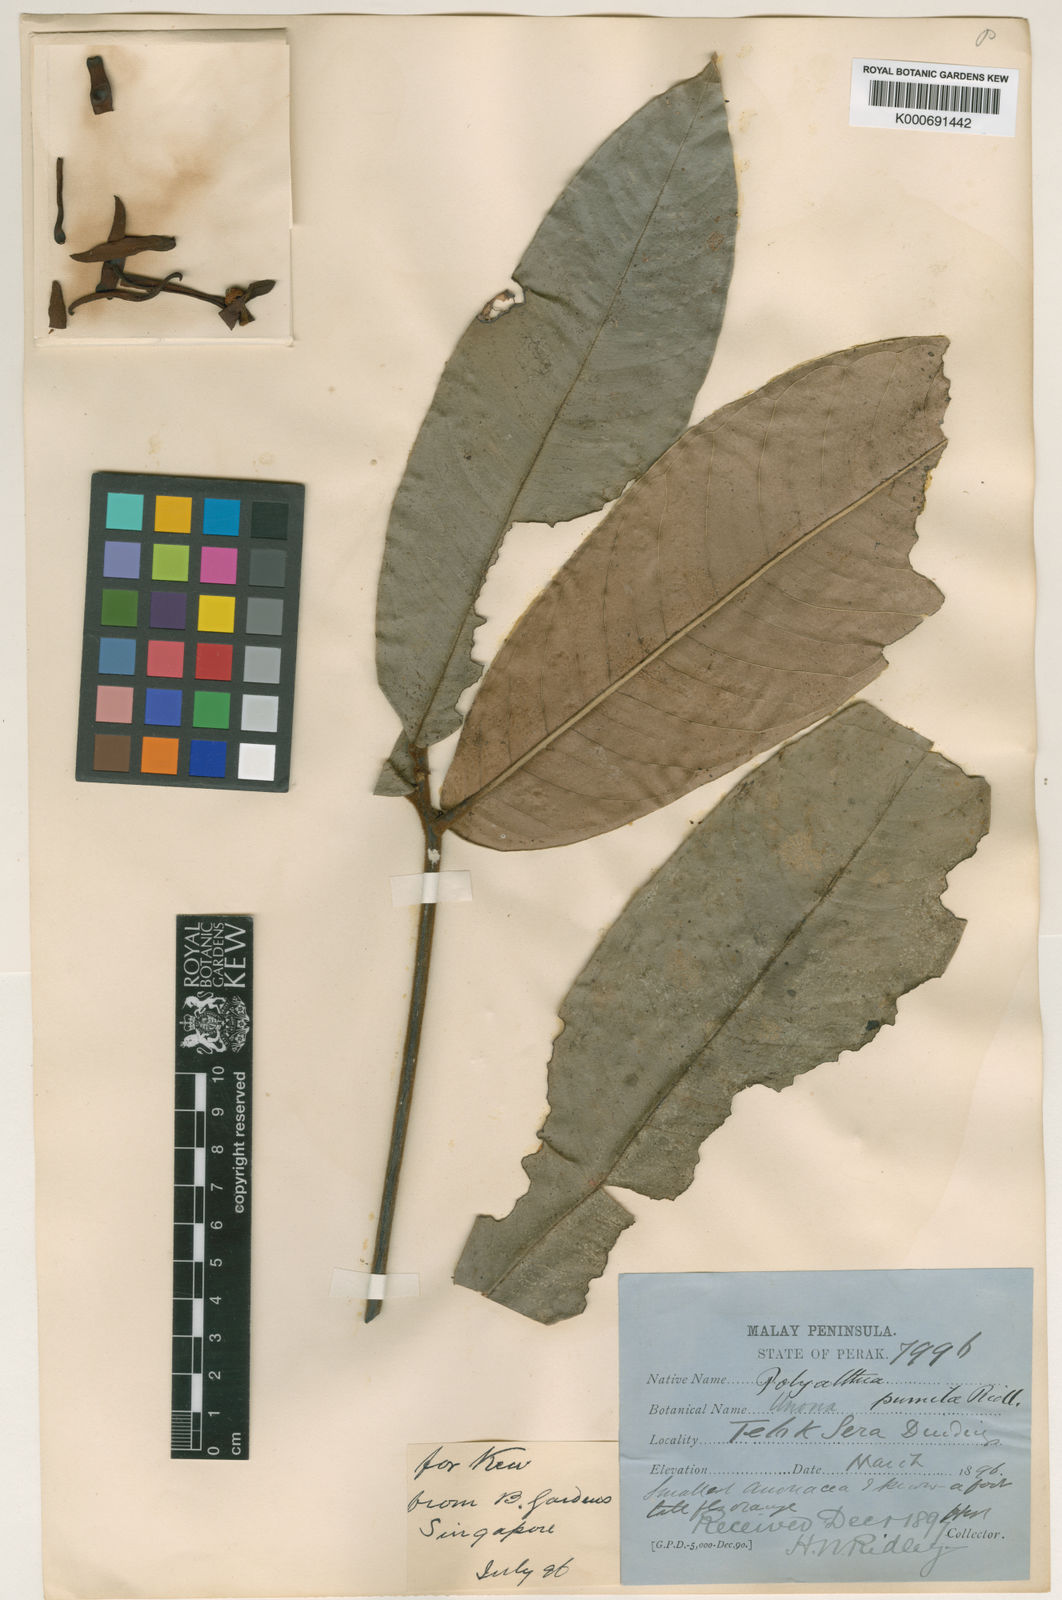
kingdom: Plantae
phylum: Tracheophyta
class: Magnoliopsida
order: Magnoliales
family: Annonaceae
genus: Polyalthia
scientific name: Polyalthia pumila
